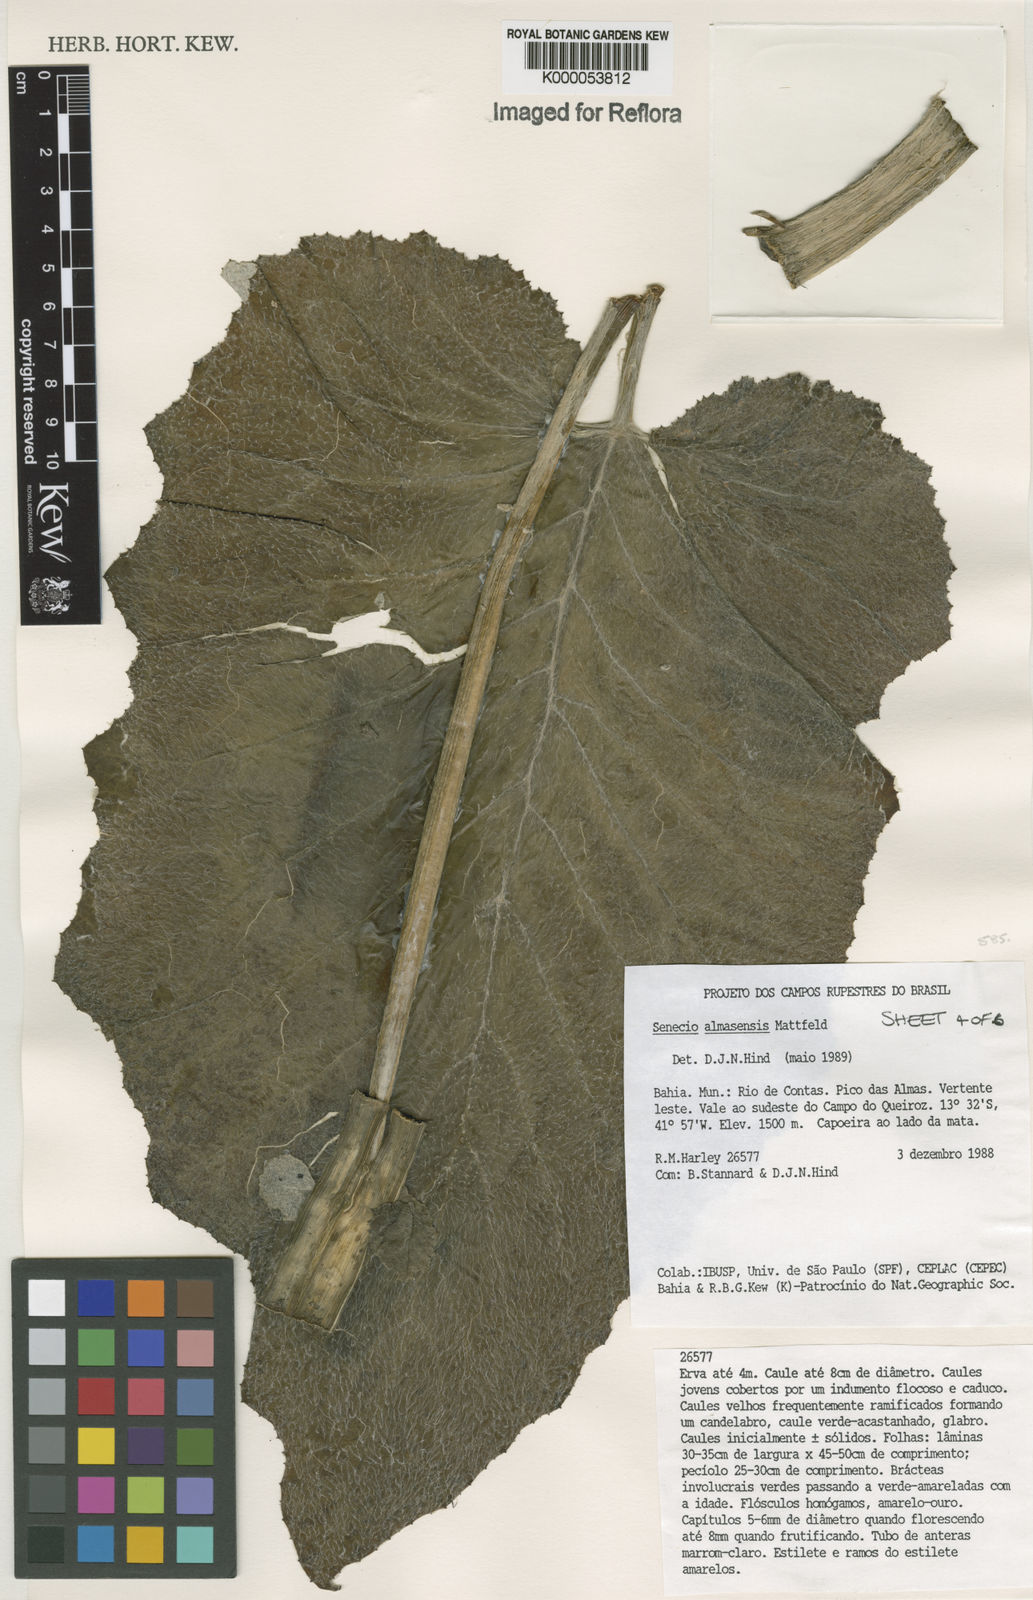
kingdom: Plantae
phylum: Tracheophyta
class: Magnoliopsida
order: Asterales
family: Asteraceae
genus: Senecio
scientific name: Senecio almasensis
